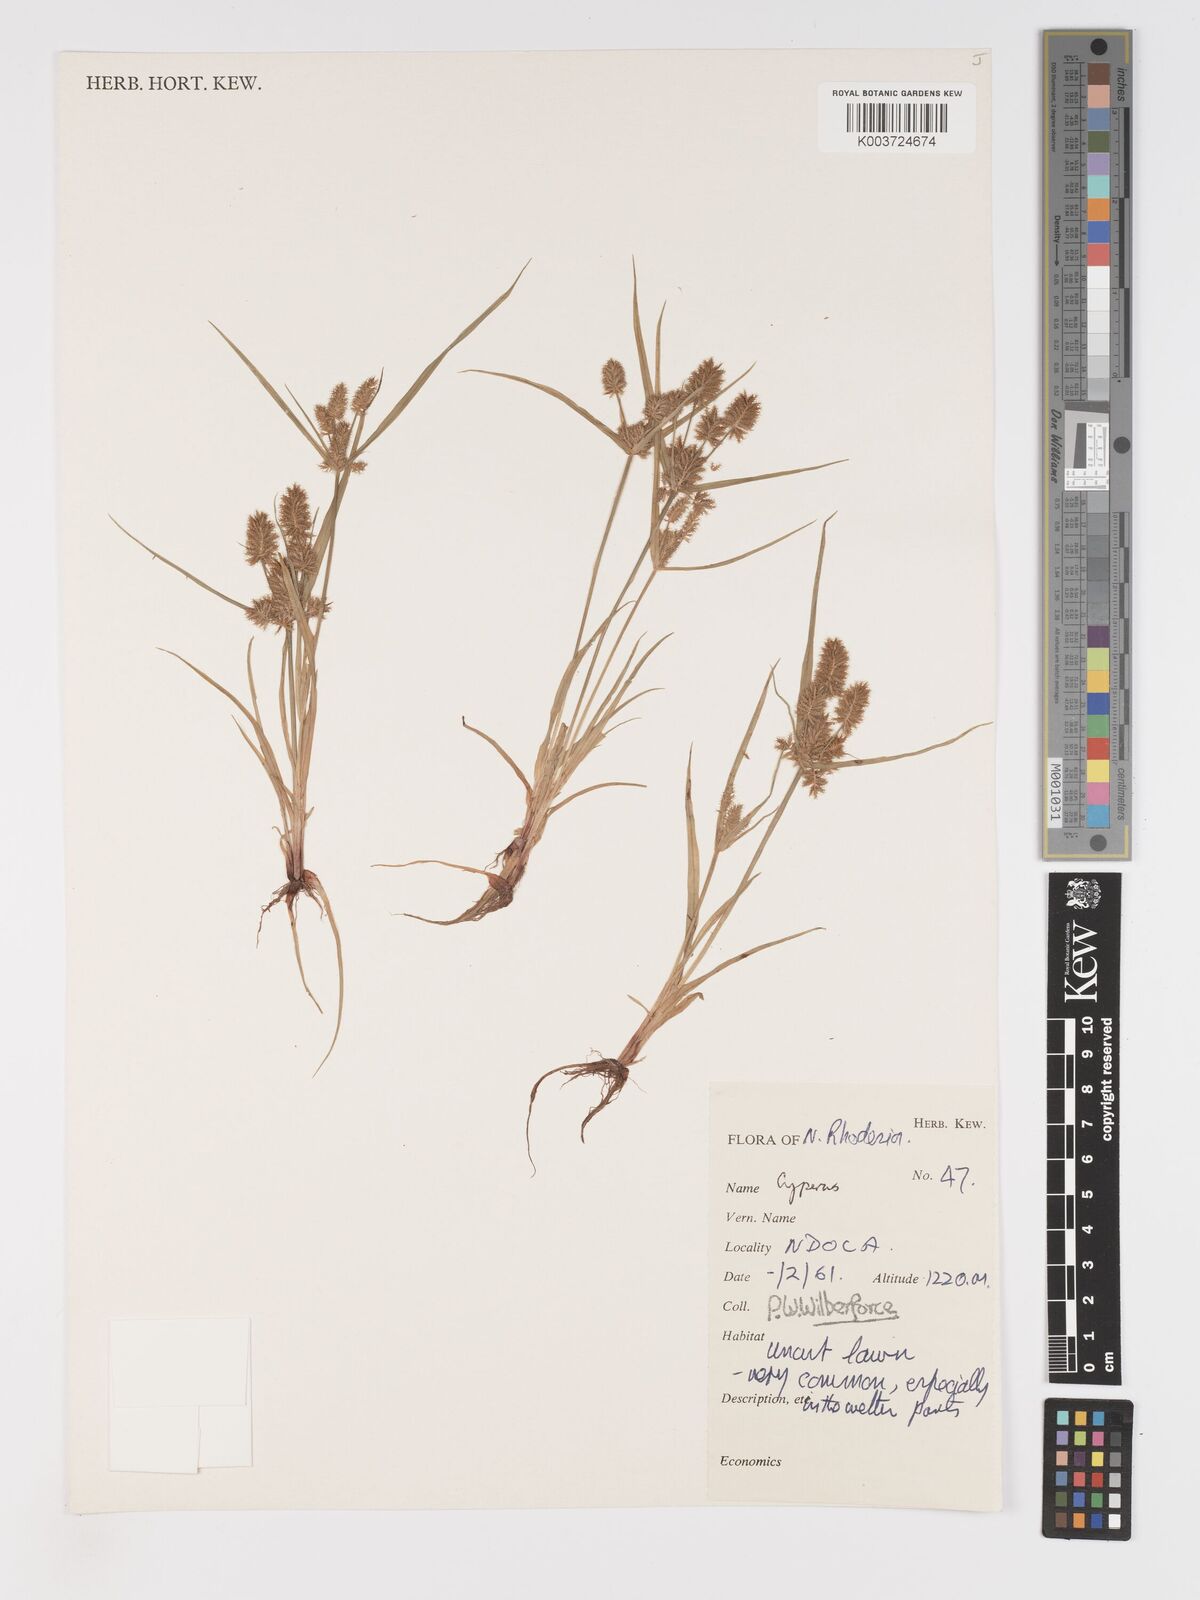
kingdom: Plantae
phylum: Tracheophyta
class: Liliopsida
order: Poales
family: Cyperaceae
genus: Cyperus
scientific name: Cyperus squarrosus
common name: Awned cyperus
